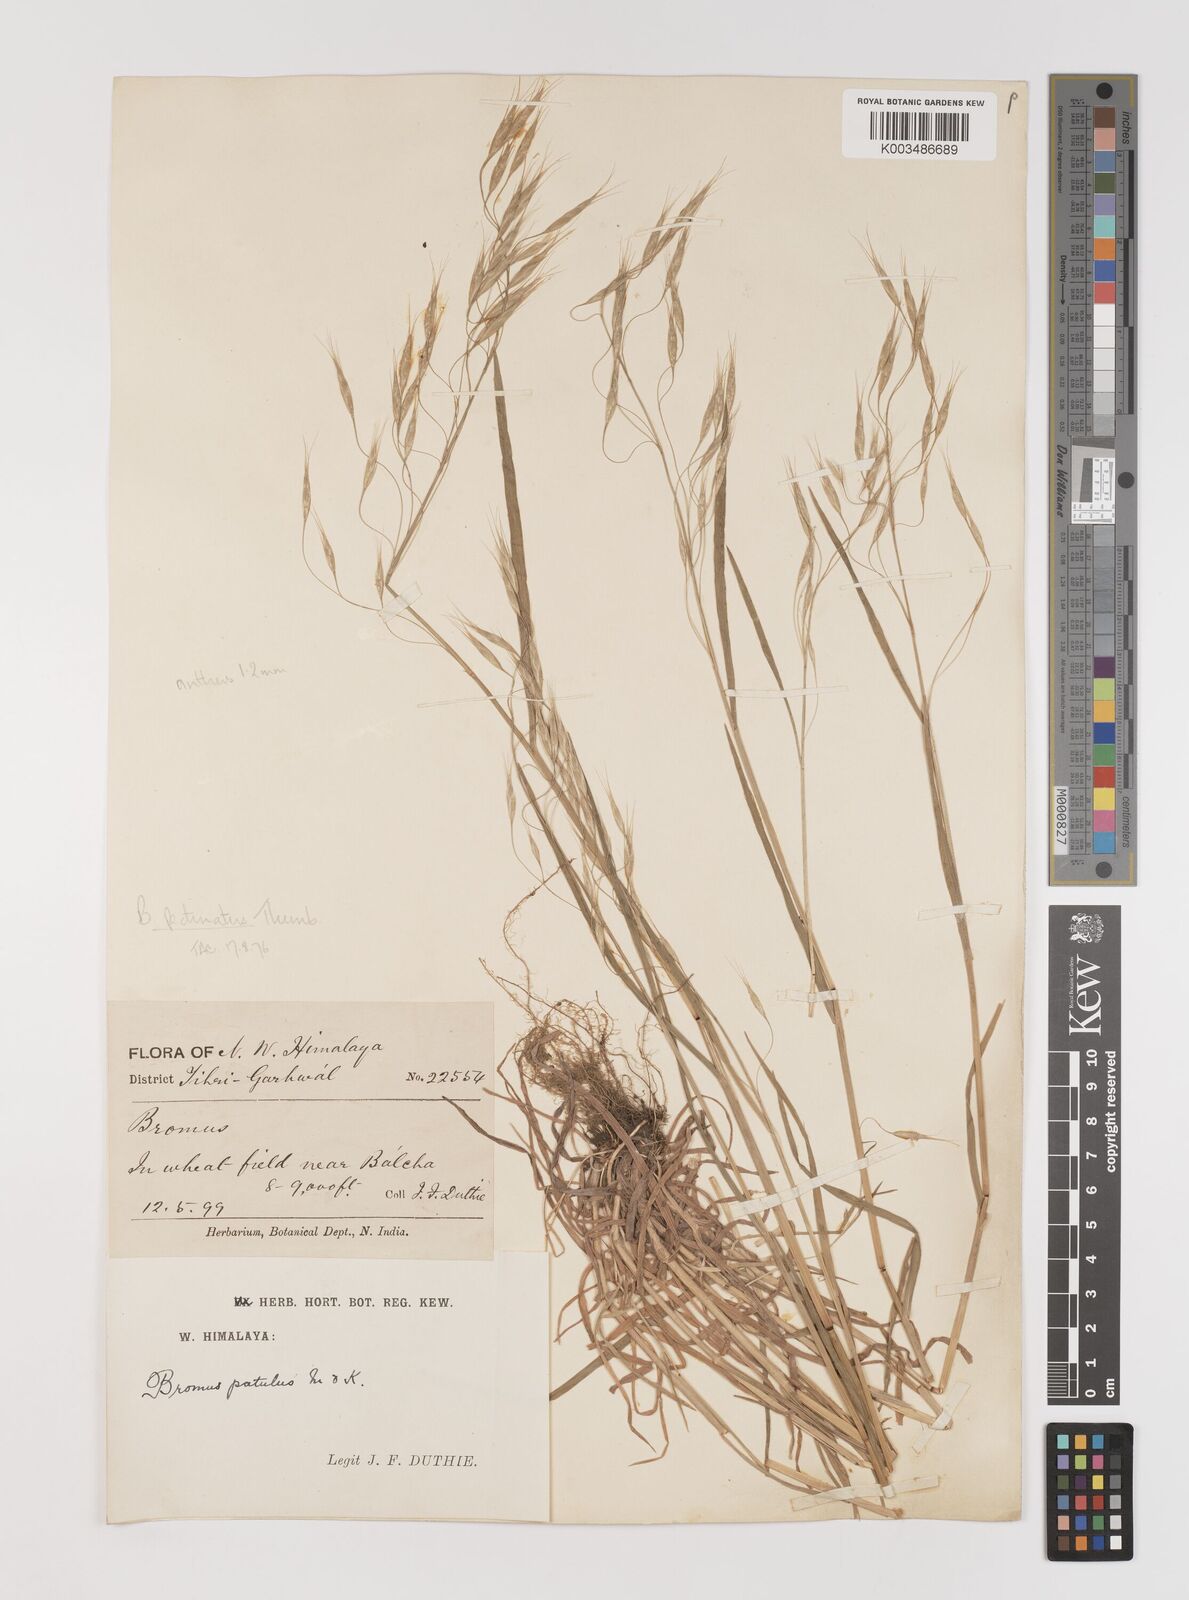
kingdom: Plantae
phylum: Tracheophyta
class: Liliopsida
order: Poales
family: Poaceae
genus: Bromus
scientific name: Bromus pectinatus
